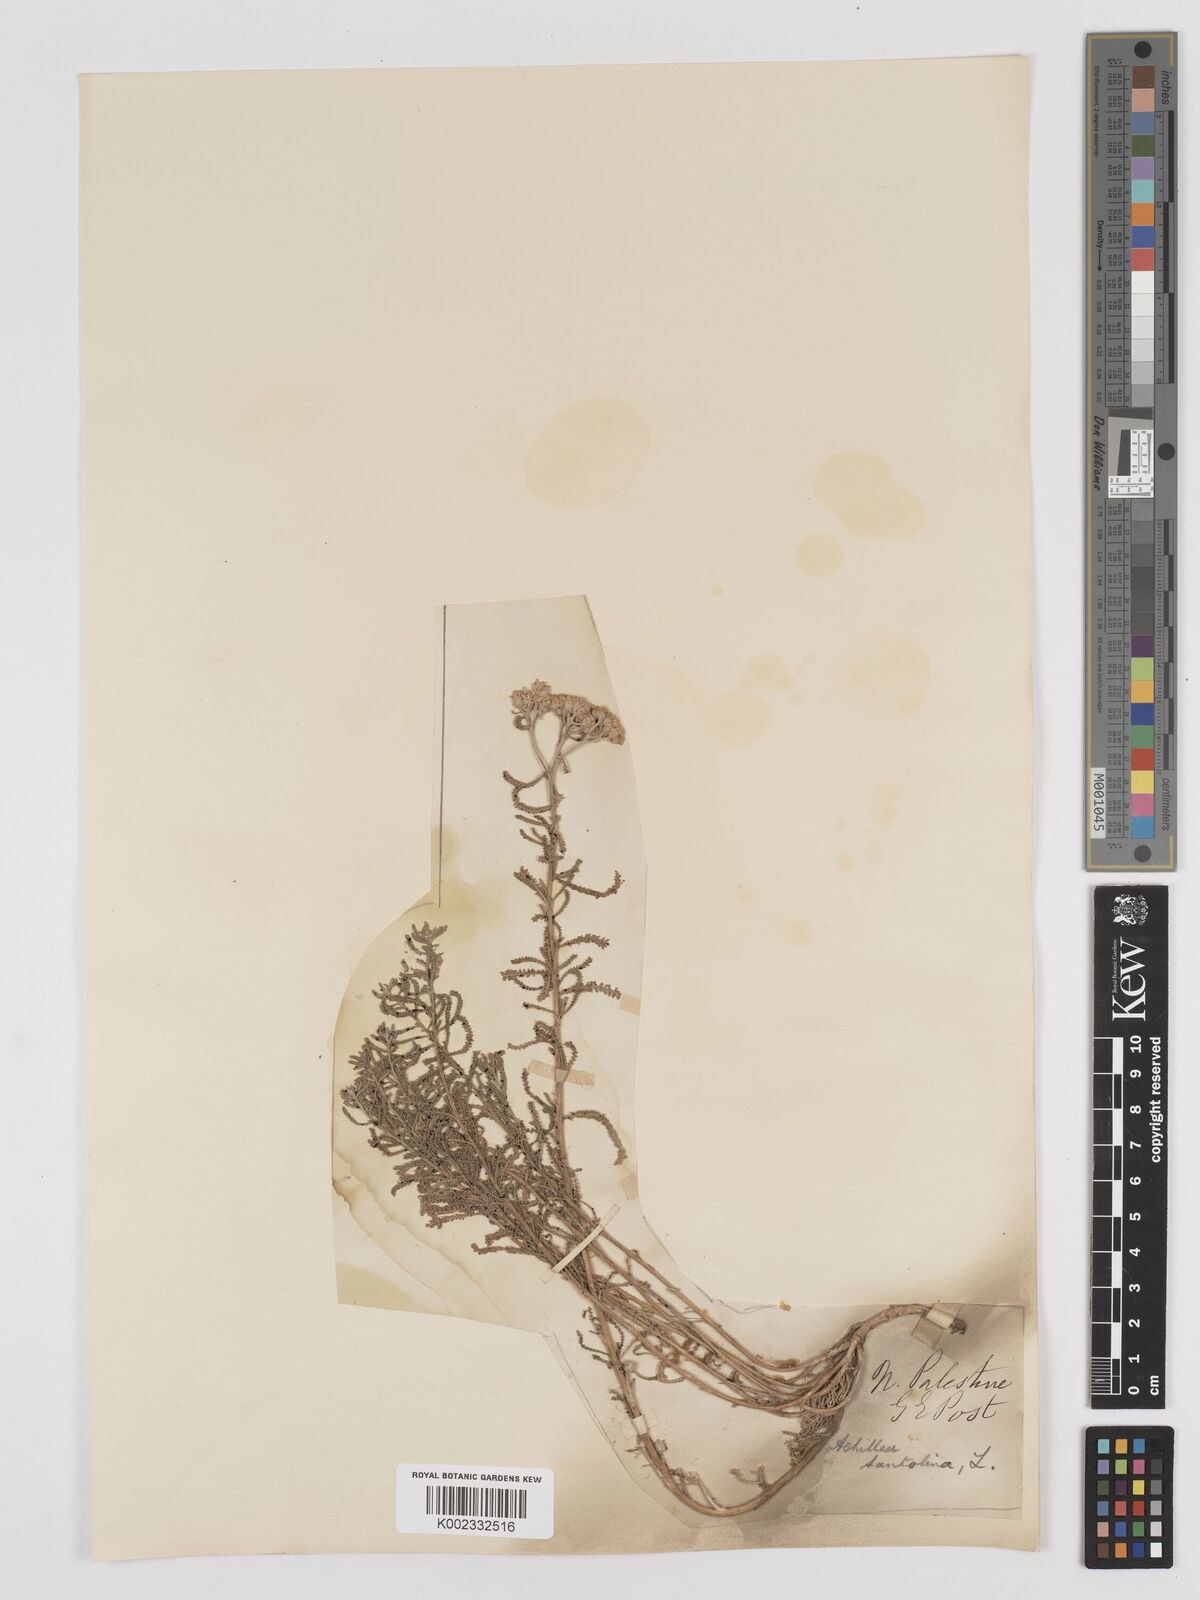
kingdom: Plantae
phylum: Tracheophyta
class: Magnoliopsida
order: Asterales
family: Asteraceae
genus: Achillea
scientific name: Achillea tenuifolia
